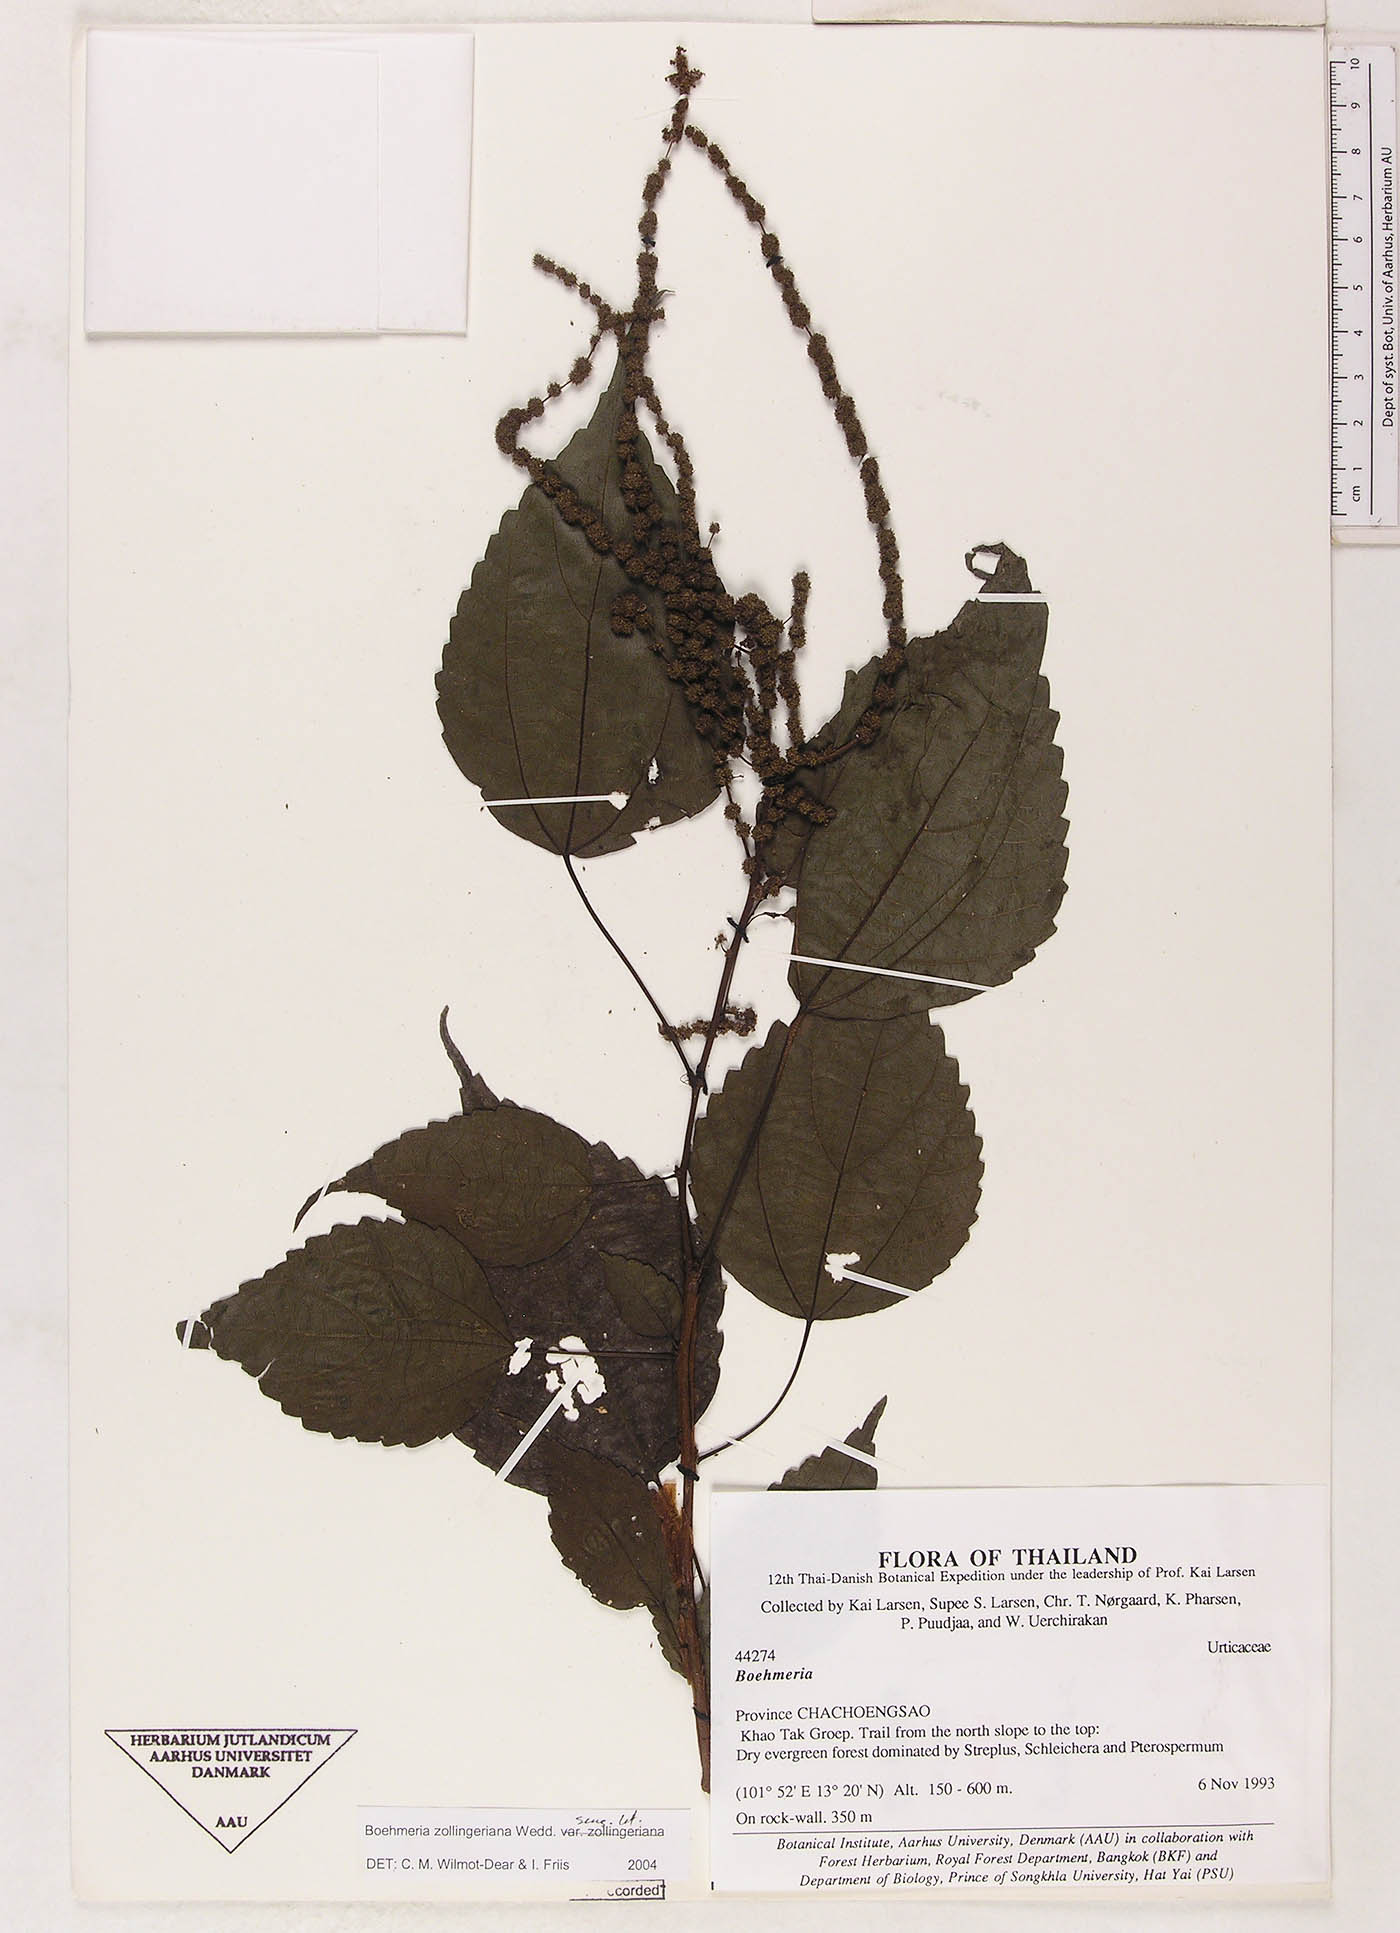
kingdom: Plantae
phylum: Tracheophyta
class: Magnoliopsida
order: Rosales
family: Urticaceae
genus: Boehmeria
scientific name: Boehmeria zollingeriana
